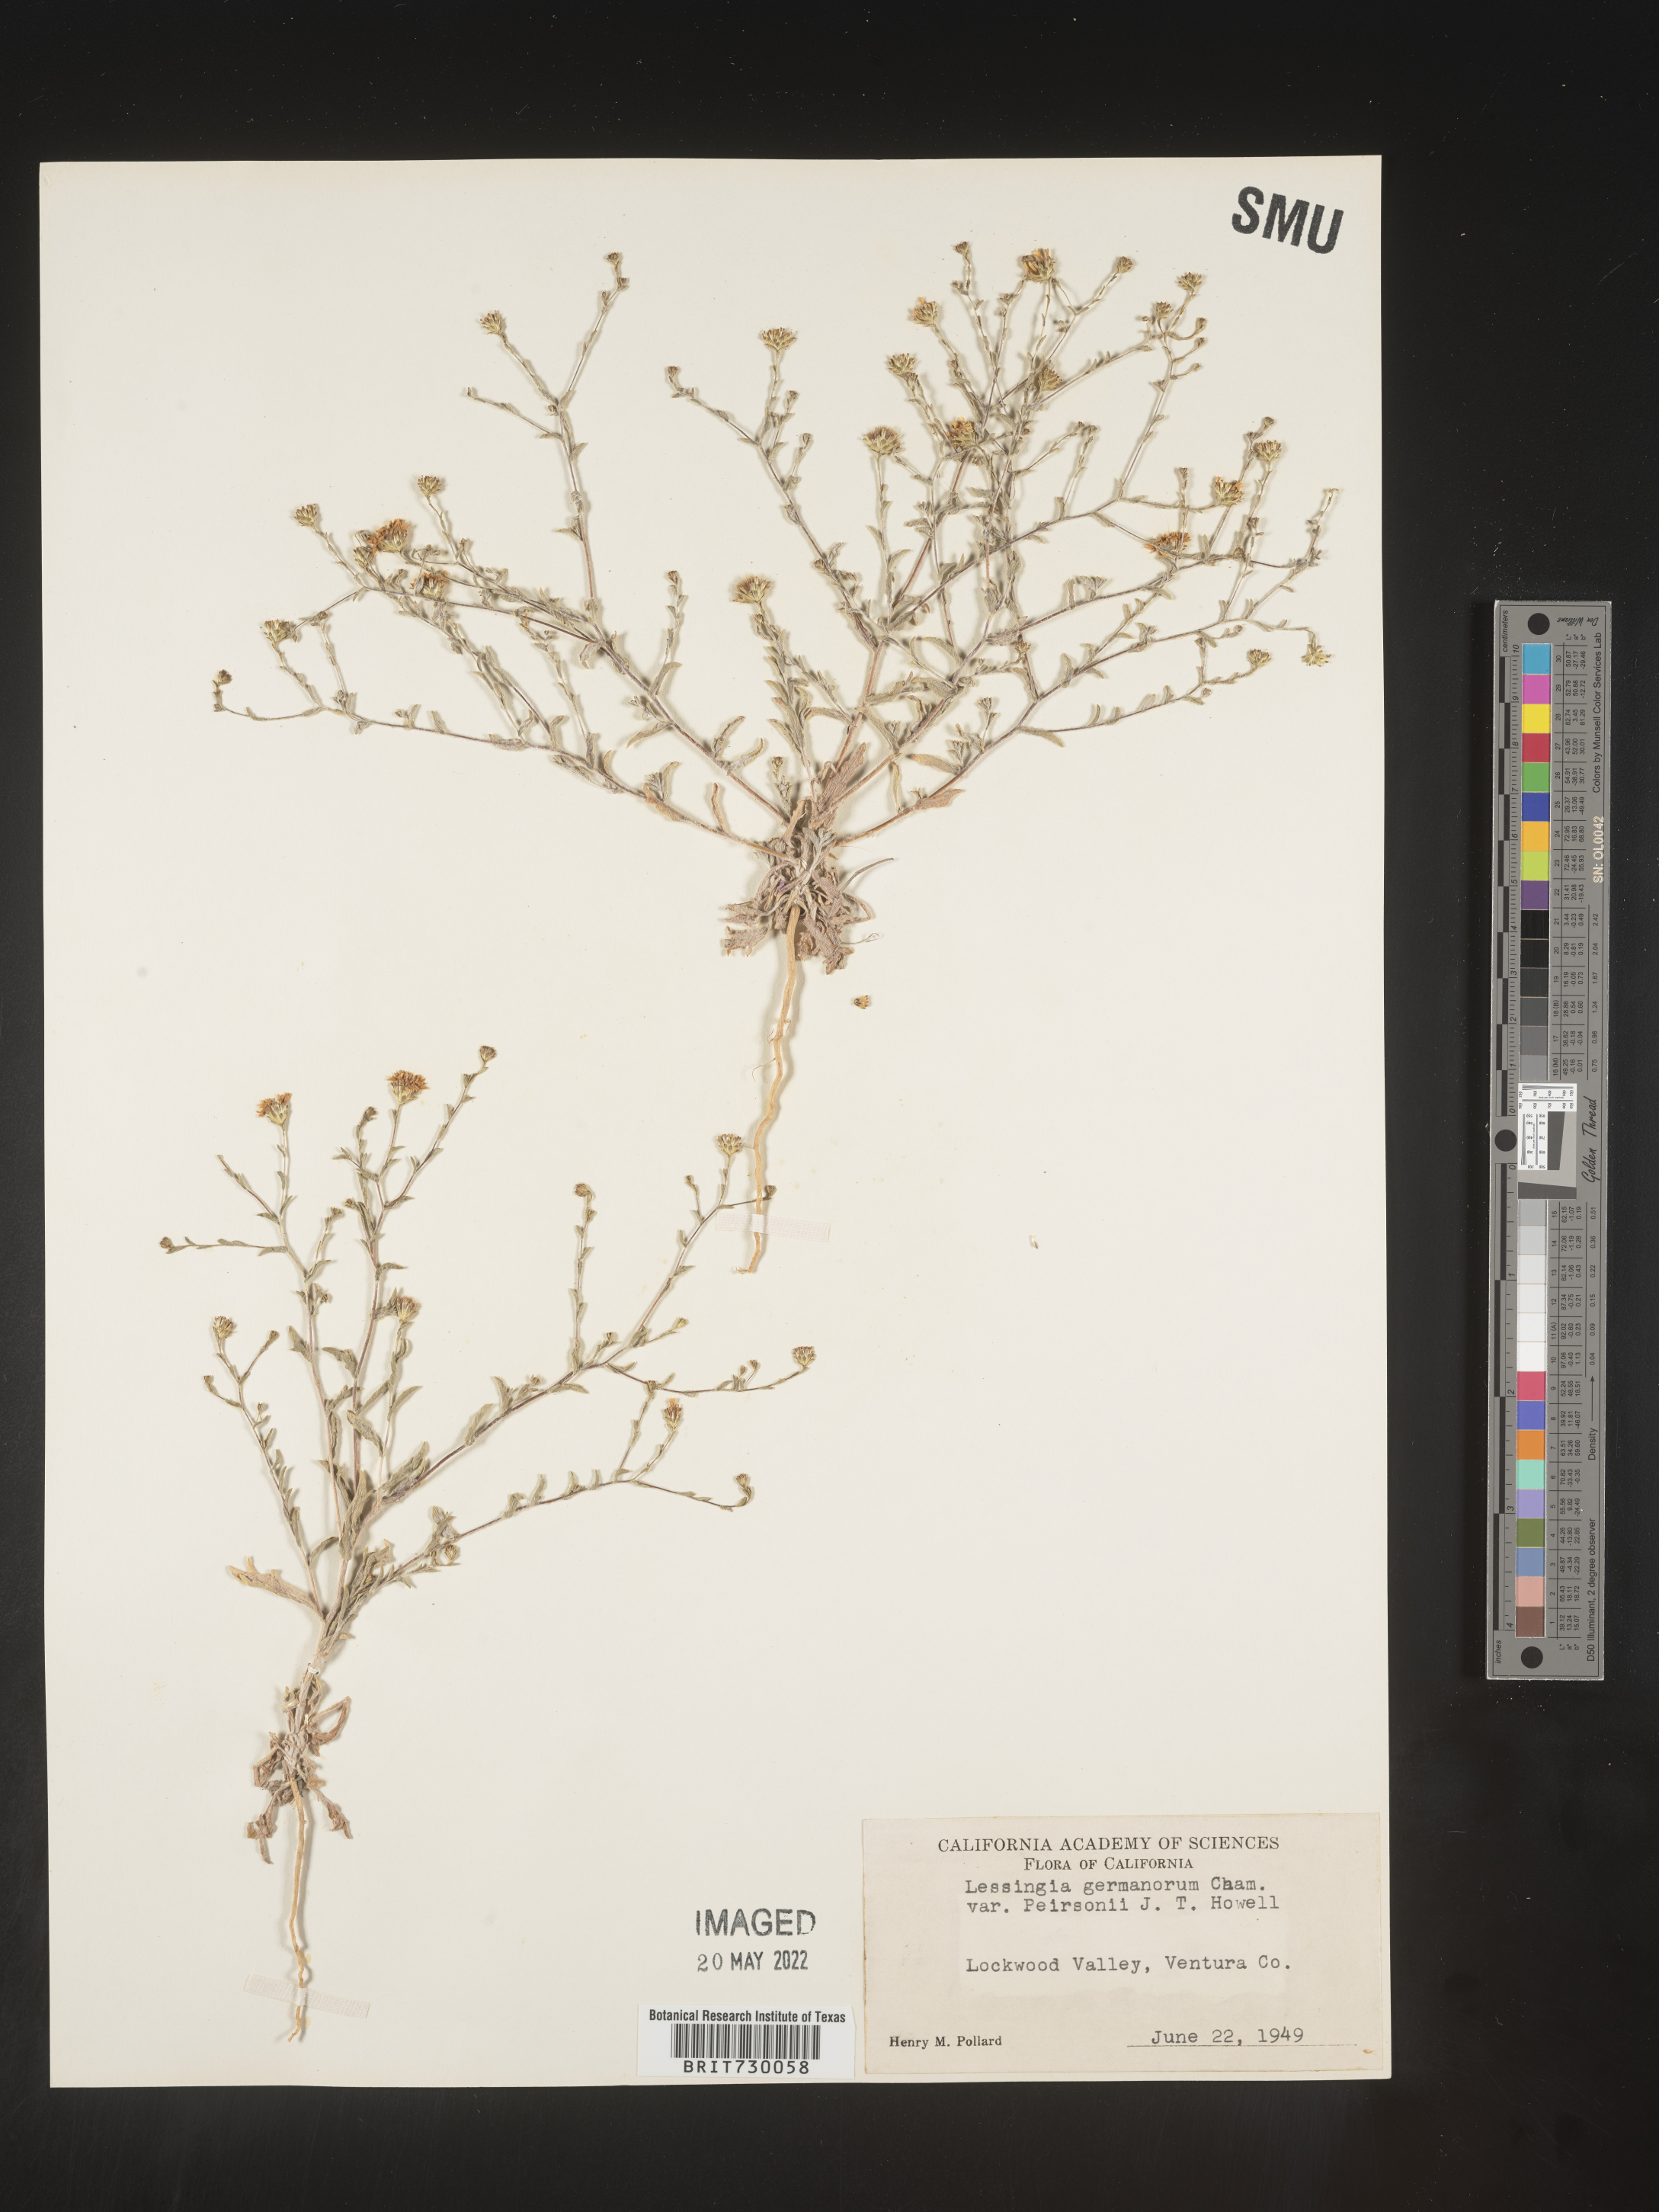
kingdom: Plantae
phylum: Tracheophyta
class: Magnoliopsida
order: Asterales
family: Asteraceae
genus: Lessingia
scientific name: Lessingia
